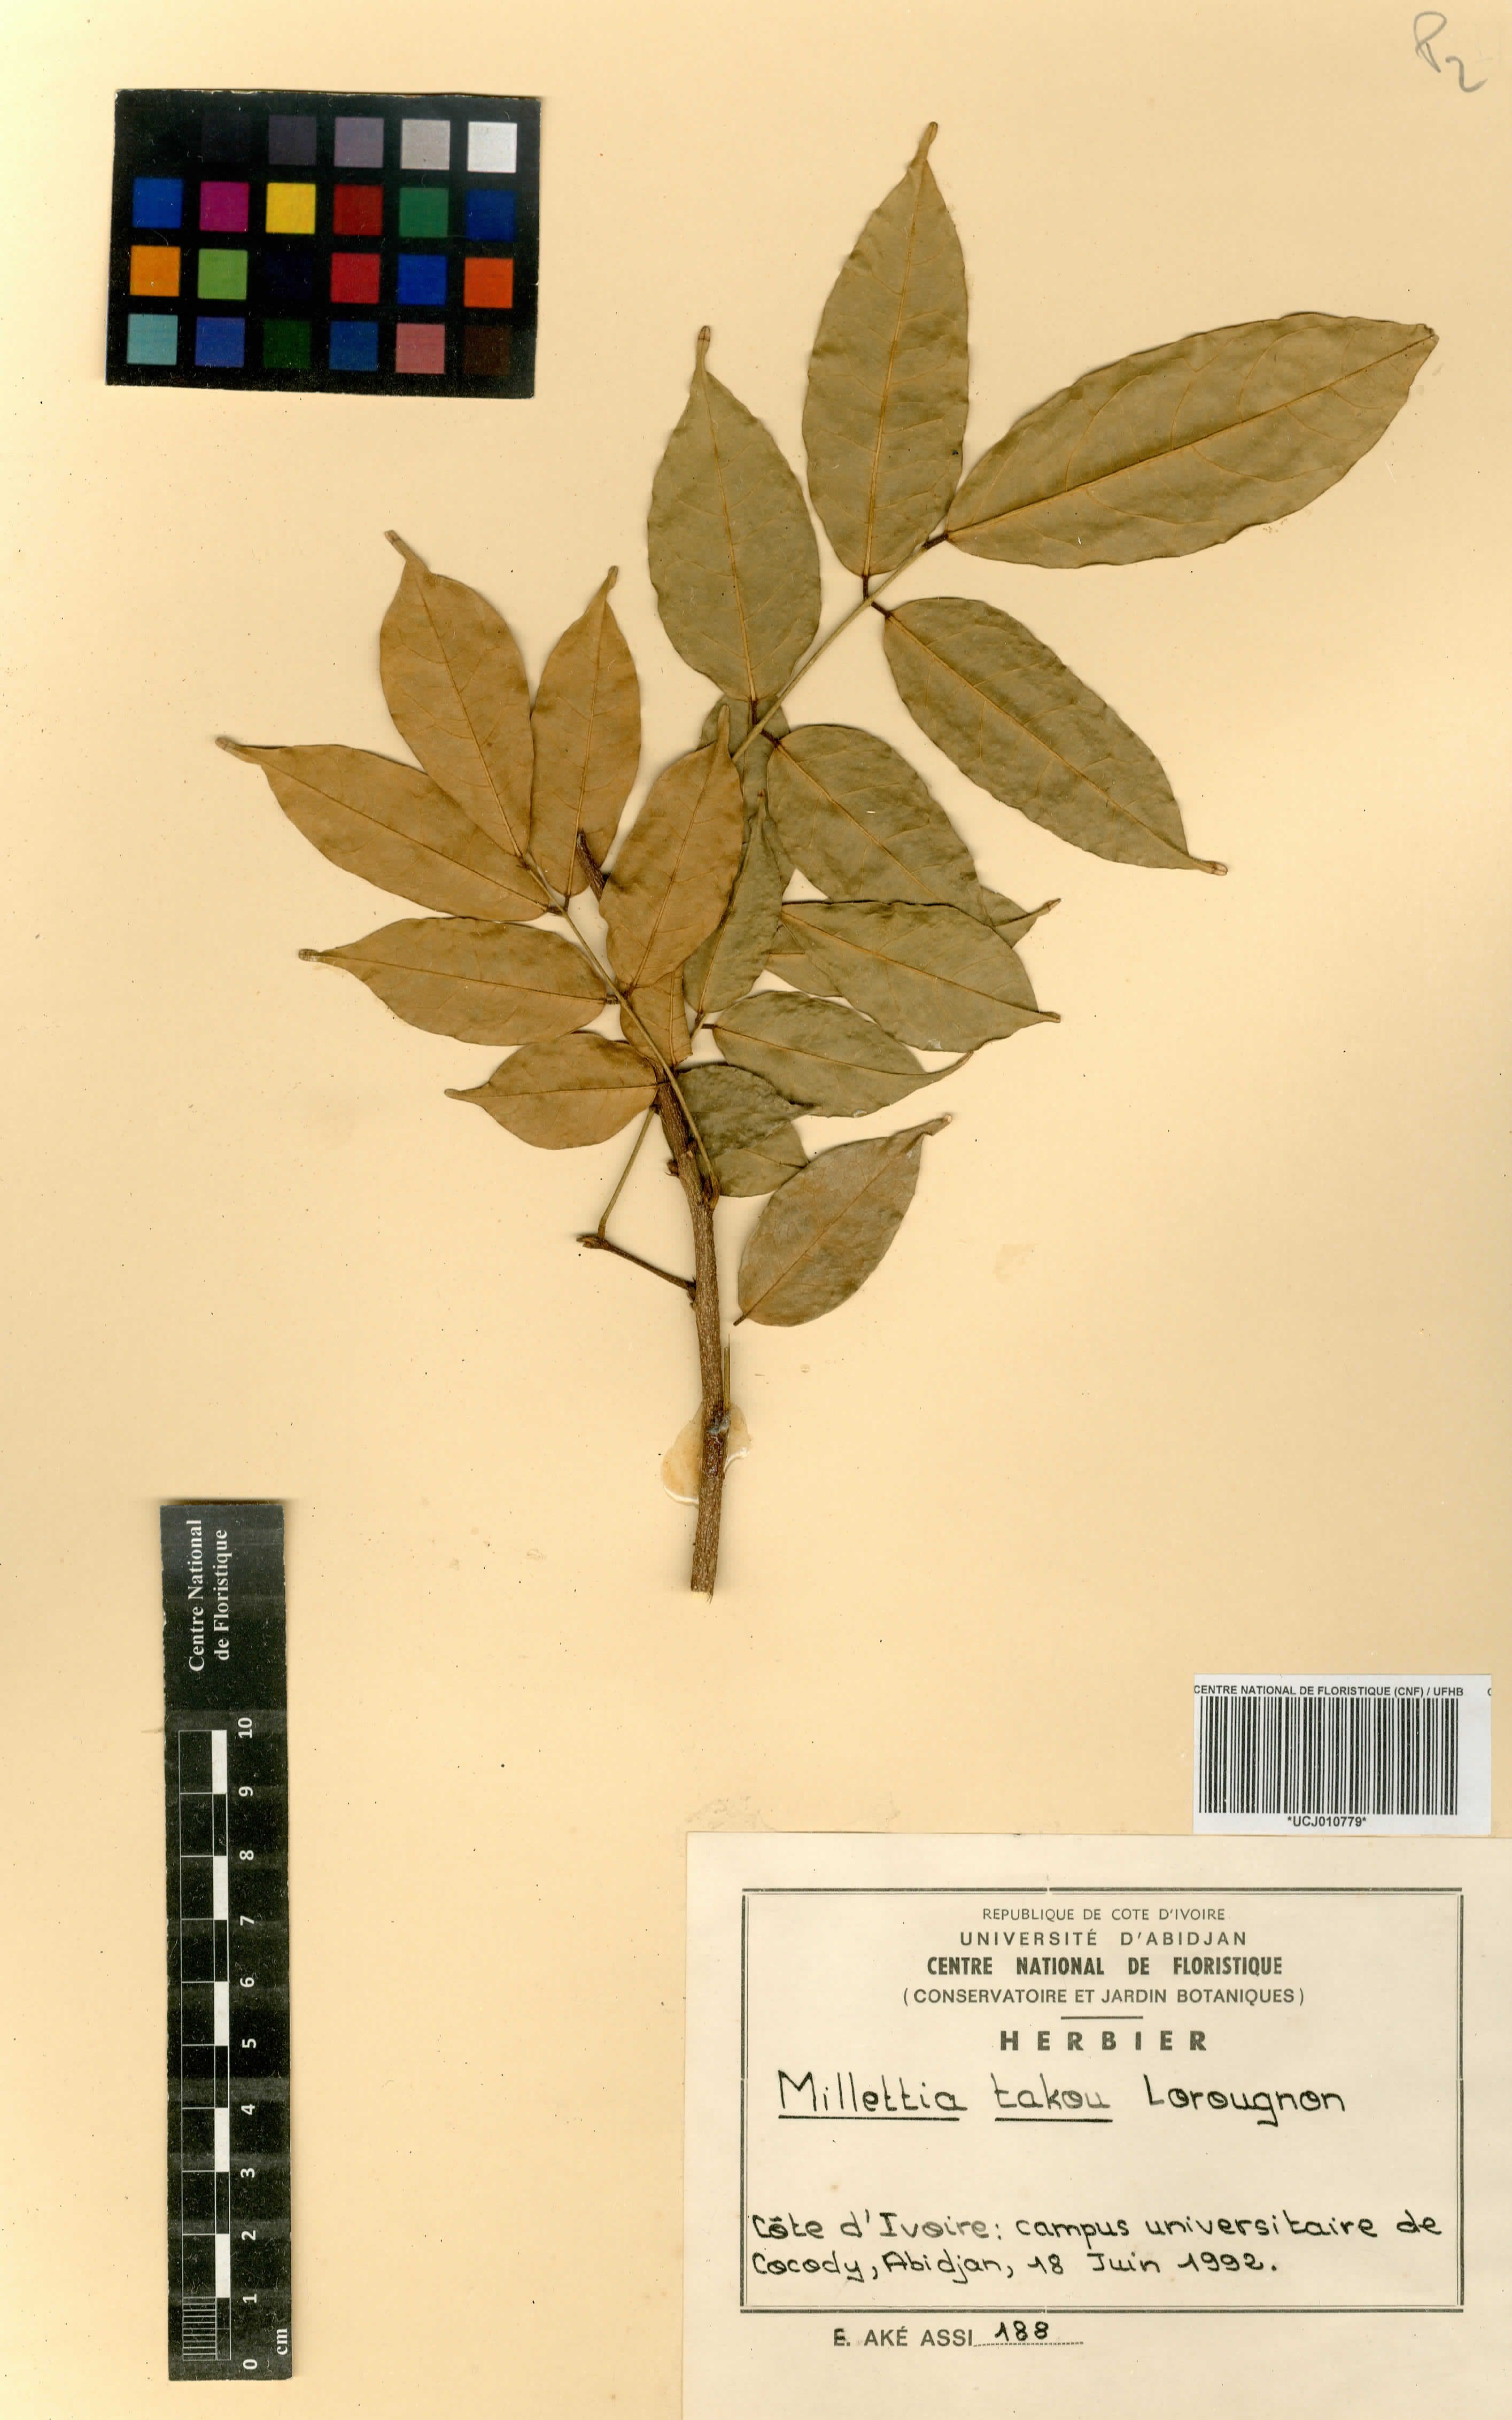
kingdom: Plantae
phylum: Tracheophyta
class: Magnoliopsida
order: Fabales
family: Fabaceae
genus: Millettia
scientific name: Millettia takou
